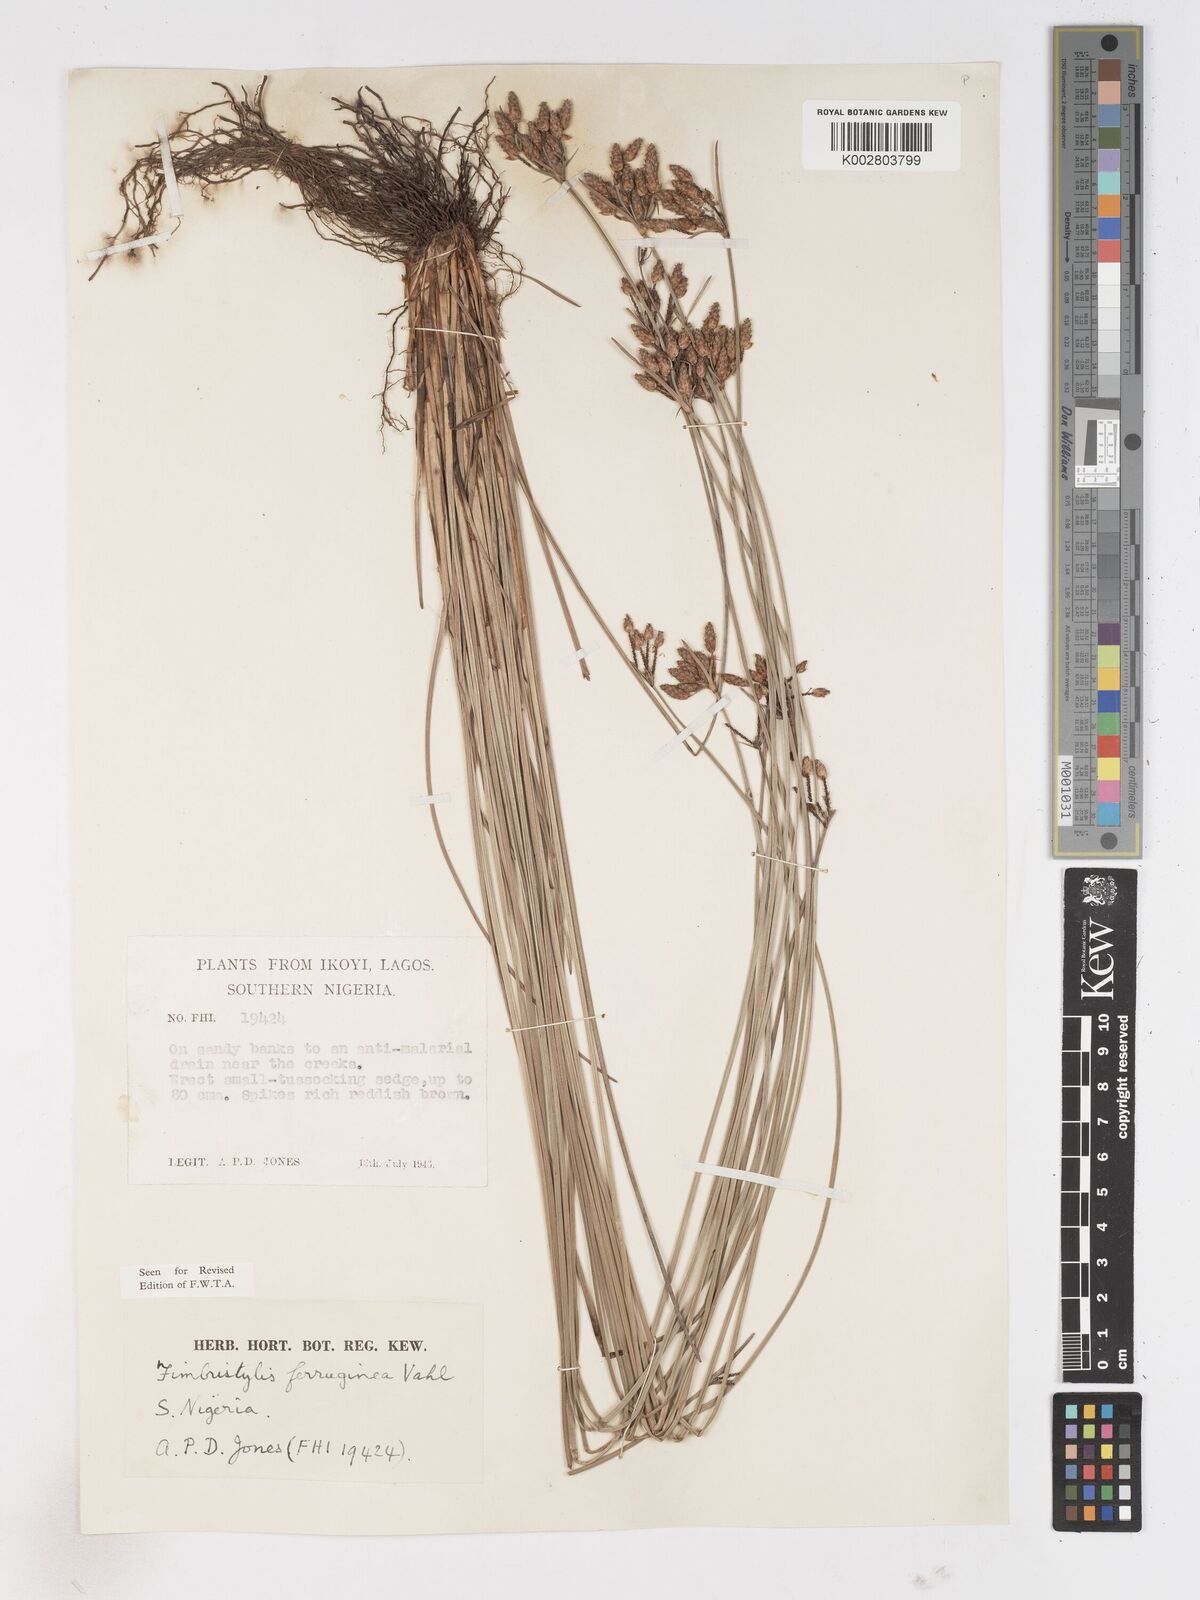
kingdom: Plantae
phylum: Tracheophyta
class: Liliopsida
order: Poales
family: Cyperaceae
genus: Fimbristylis
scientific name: Fimbristylis ferruginea
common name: West indian fimbry
